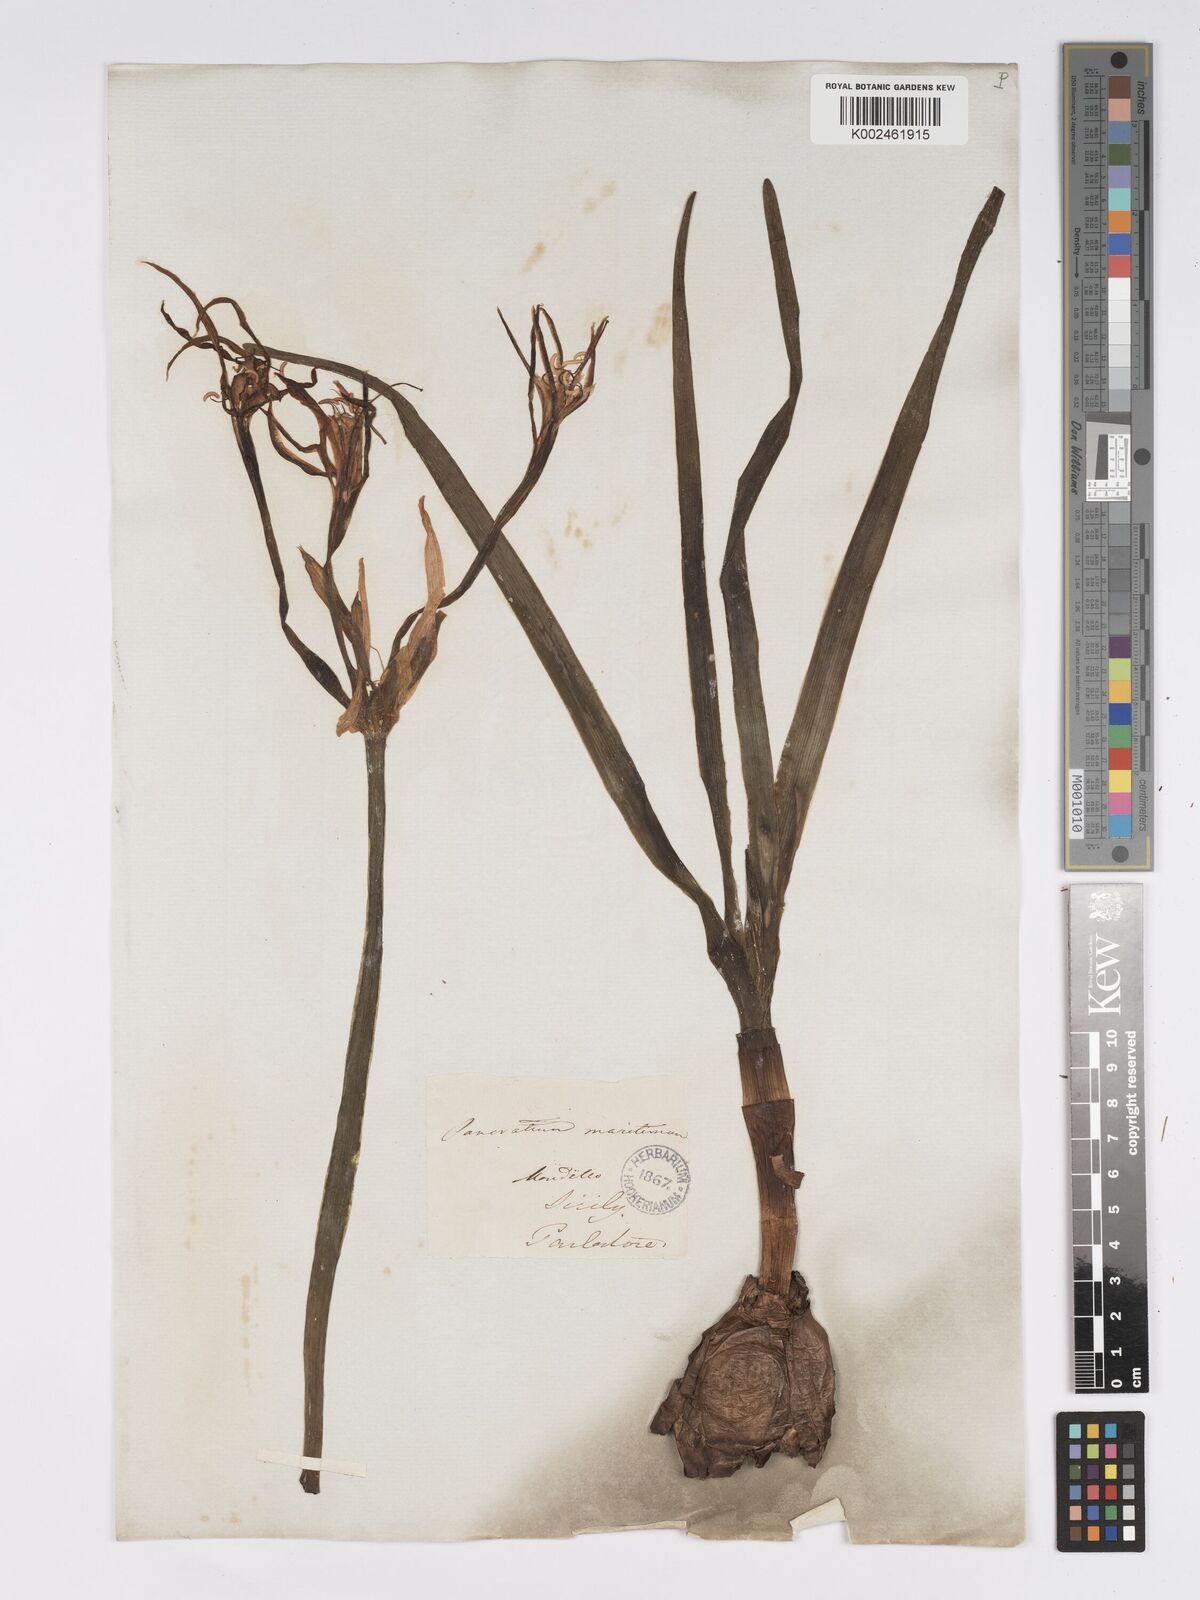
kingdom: Plantae
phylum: Tracheophyta
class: Liliopsida
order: Asparagales
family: Amaryllidaceae
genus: Pancratium
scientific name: Pancratium maritimum
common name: Sea-daffodil
